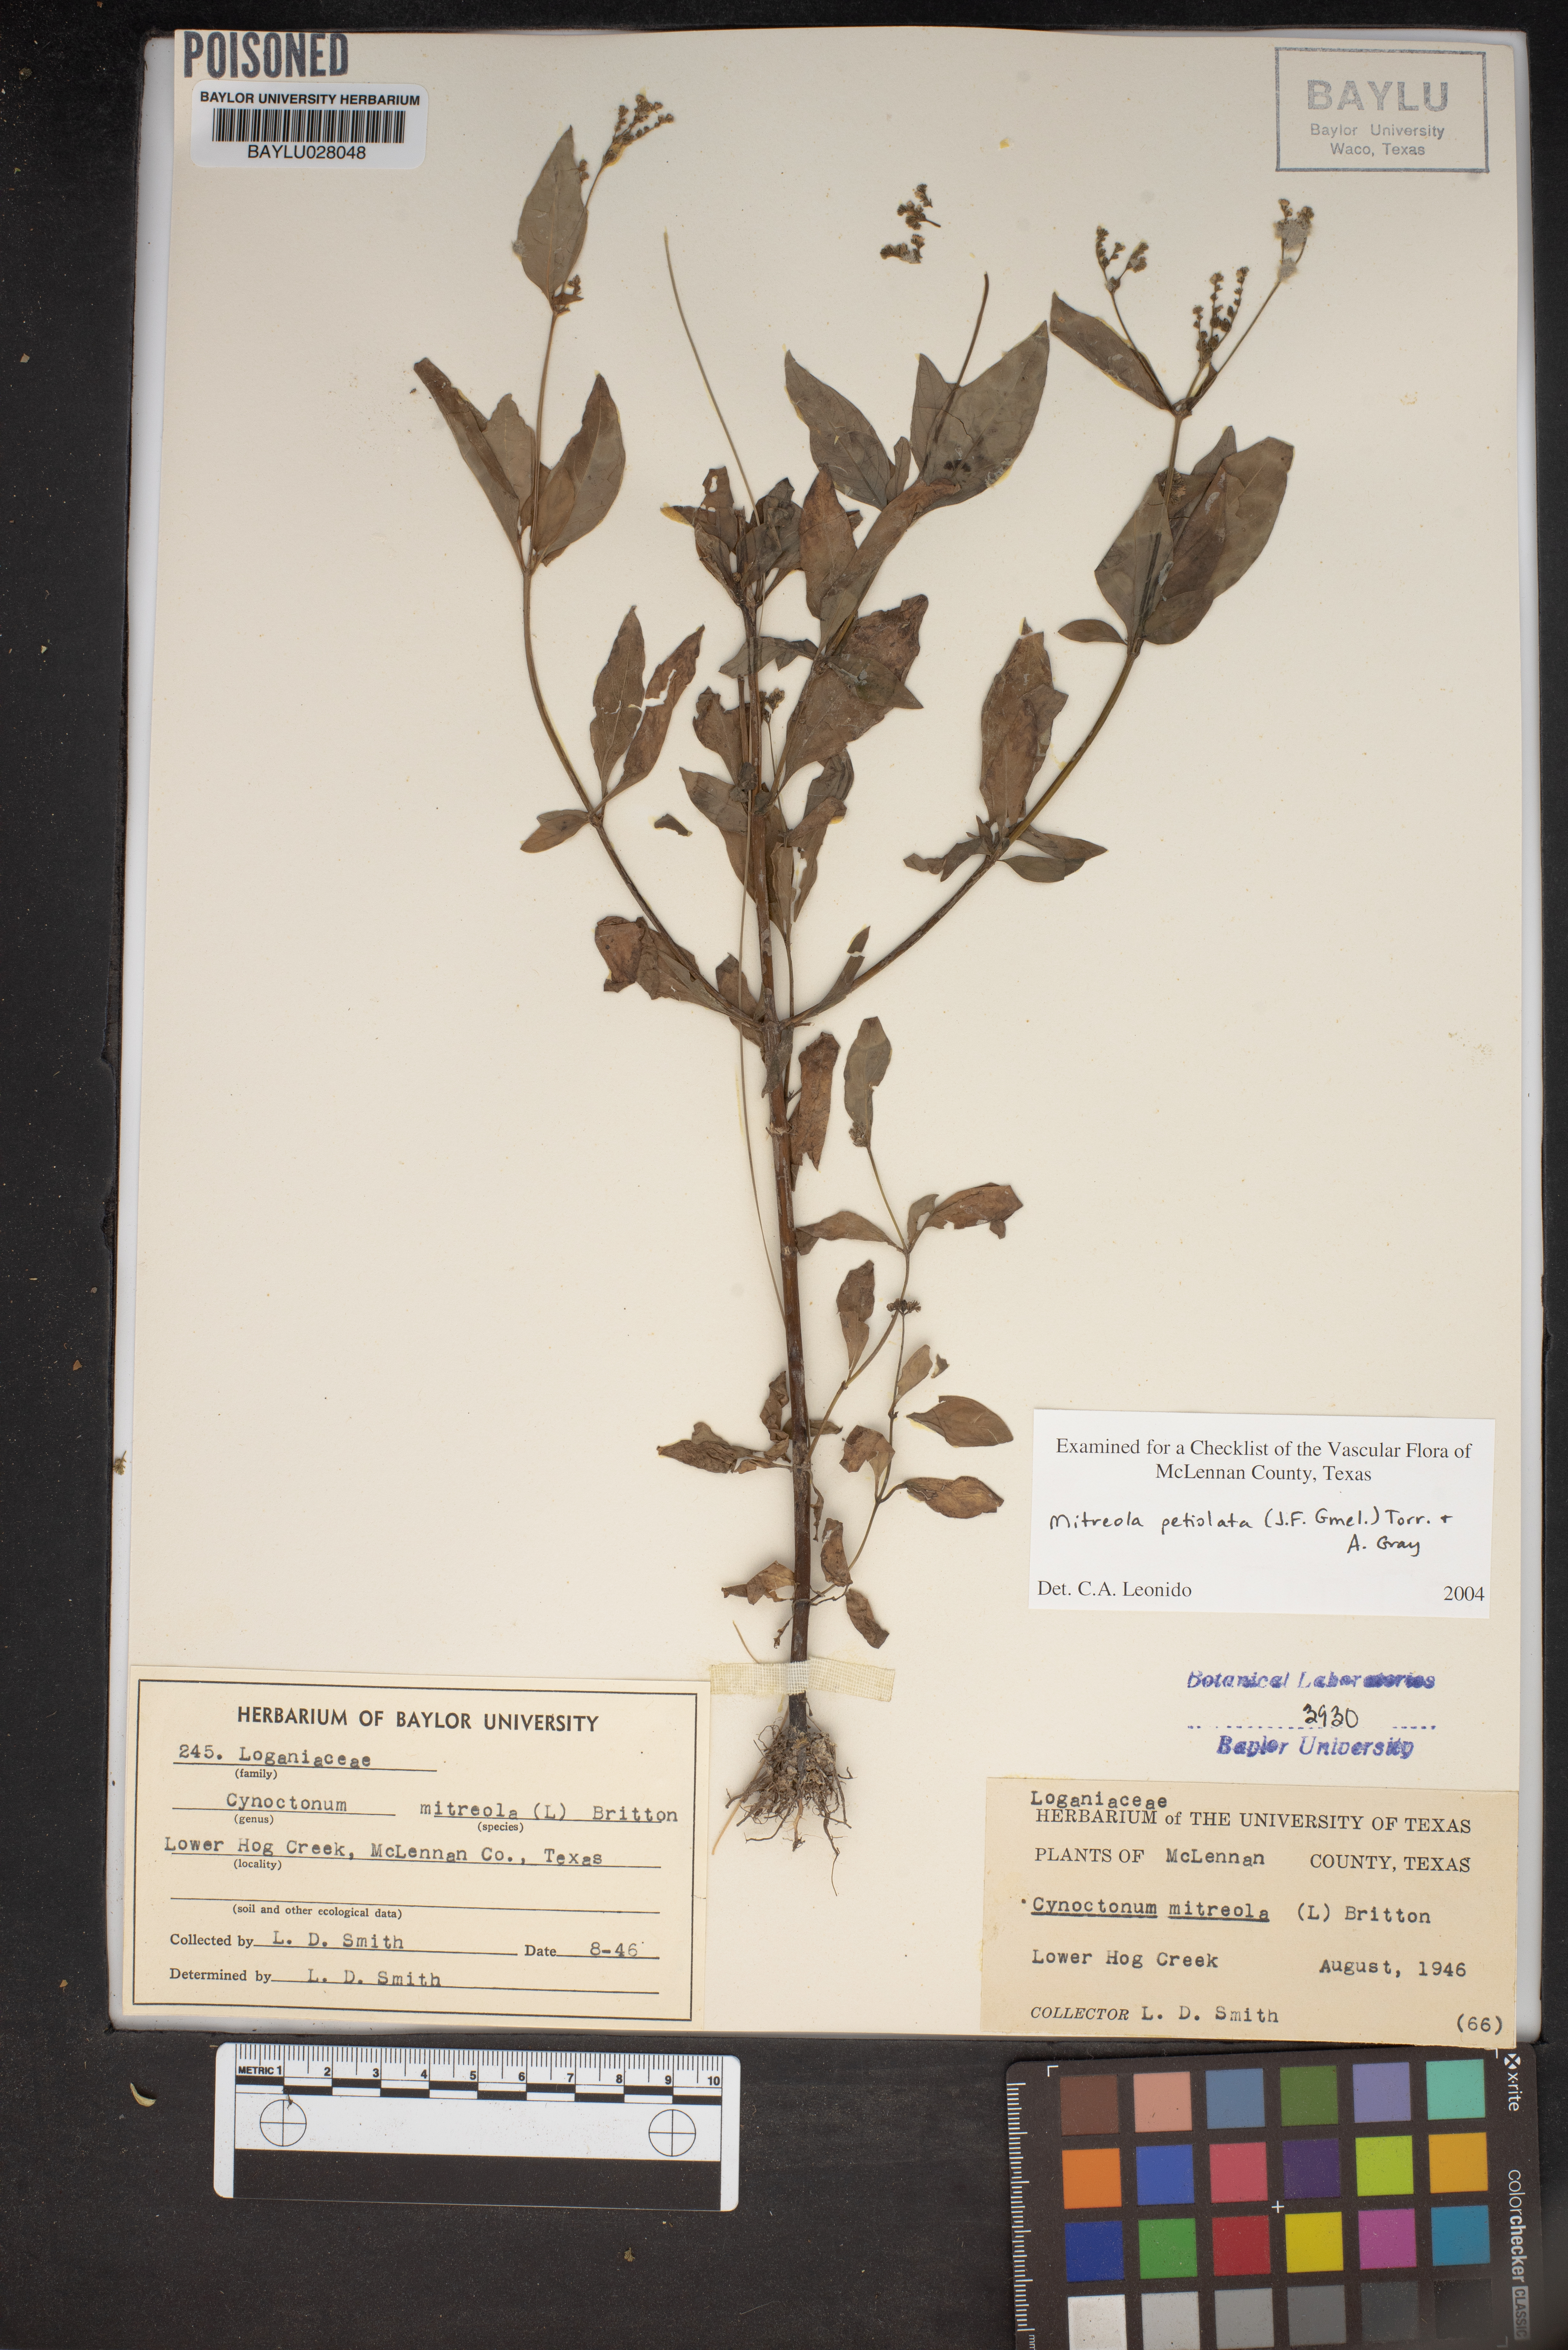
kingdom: Plantae
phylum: Tracheophyta
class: Magnoliopsida
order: Gentianales
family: Loganiaceae
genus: Mitreola
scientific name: Mitreola petiolata
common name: Lax hornpod
